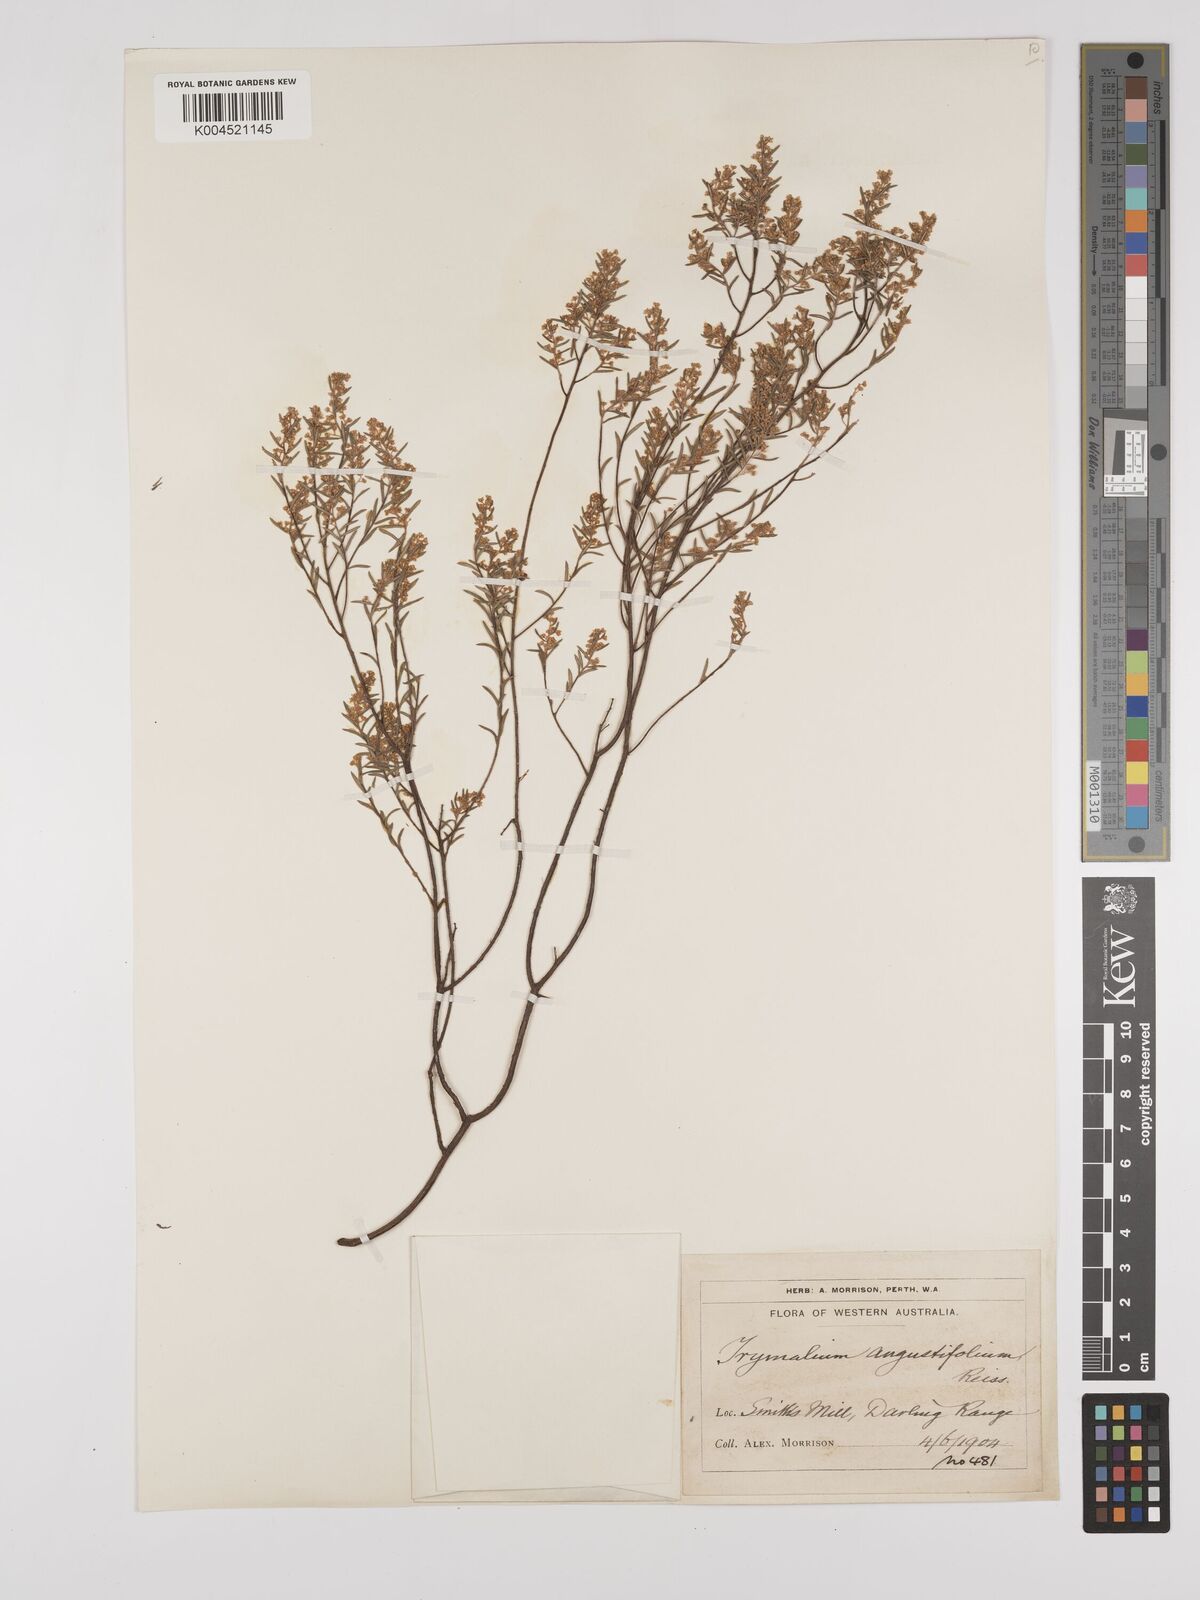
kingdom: Plantae
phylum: Tracheophyta
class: Magnoliopsida
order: Rosales
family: Rhamnaceae
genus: Trymalium
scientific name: Trymalium angustifolium
